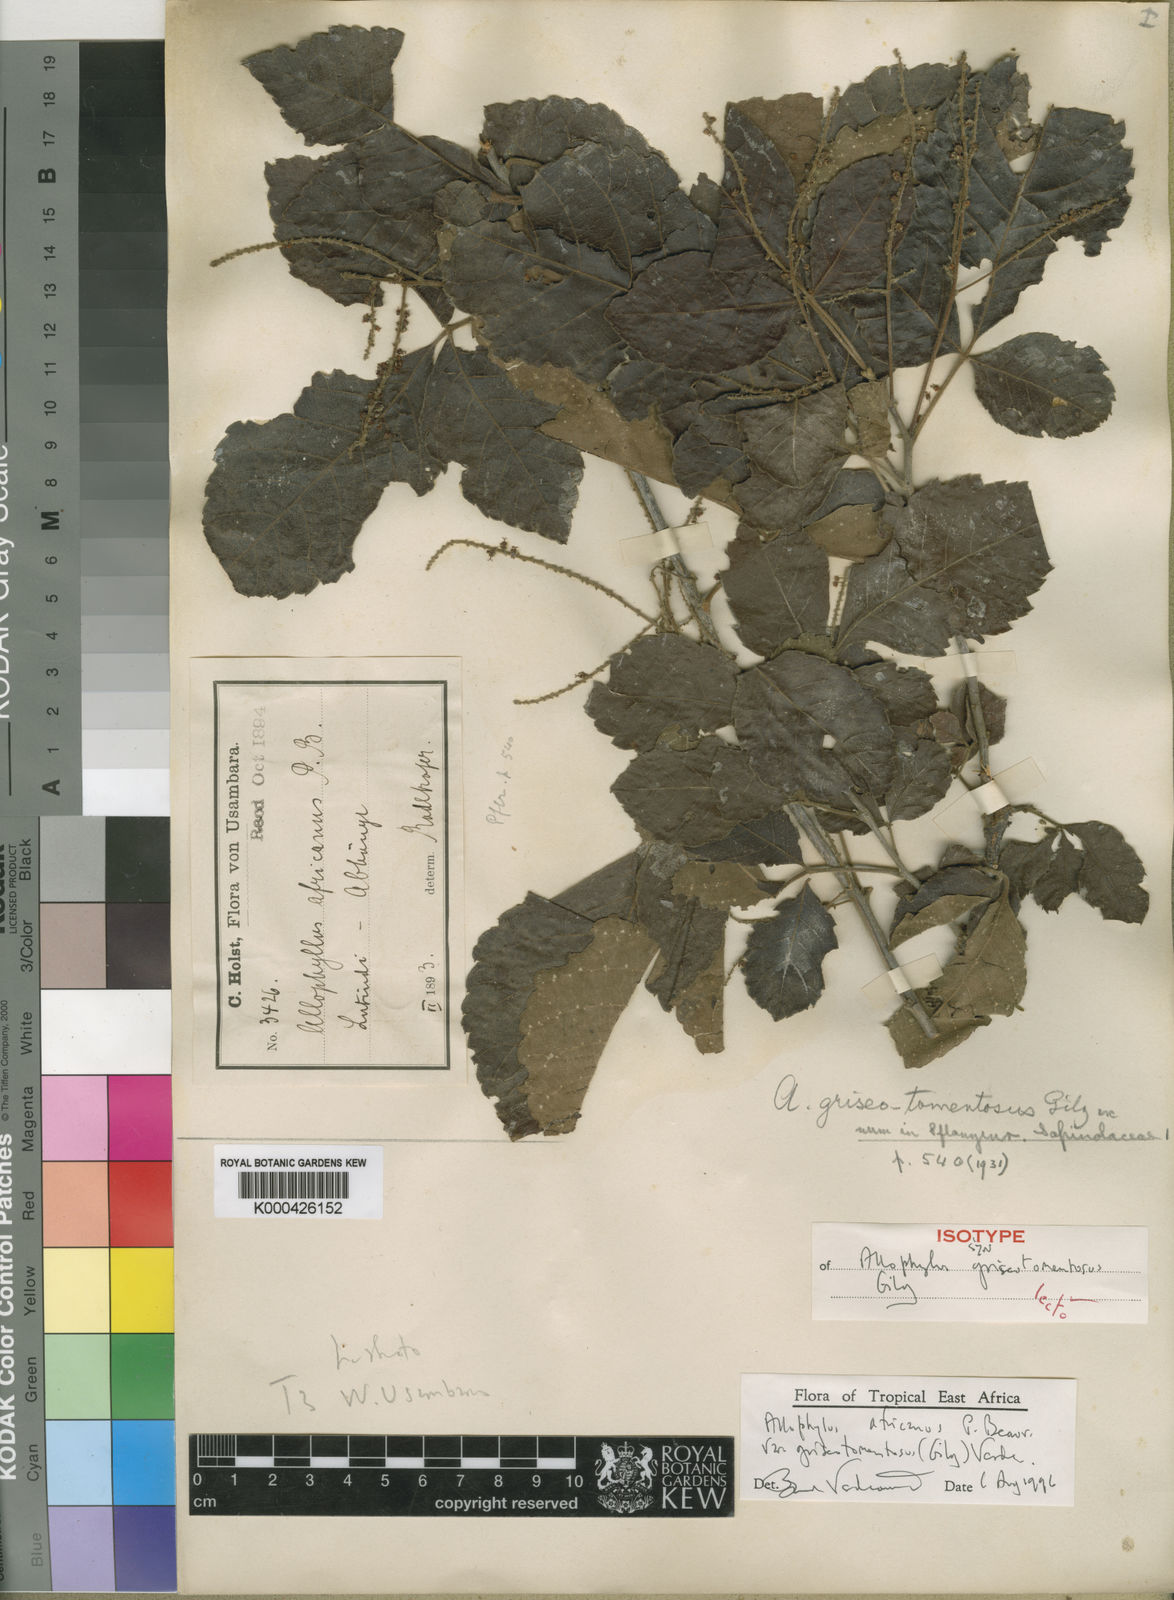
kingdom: Plantae
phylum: Tracheophyta
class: Magnoliopsida
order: Sapindales
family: Sapindaceae
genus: Allophylus
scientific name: Allophylus africanus
